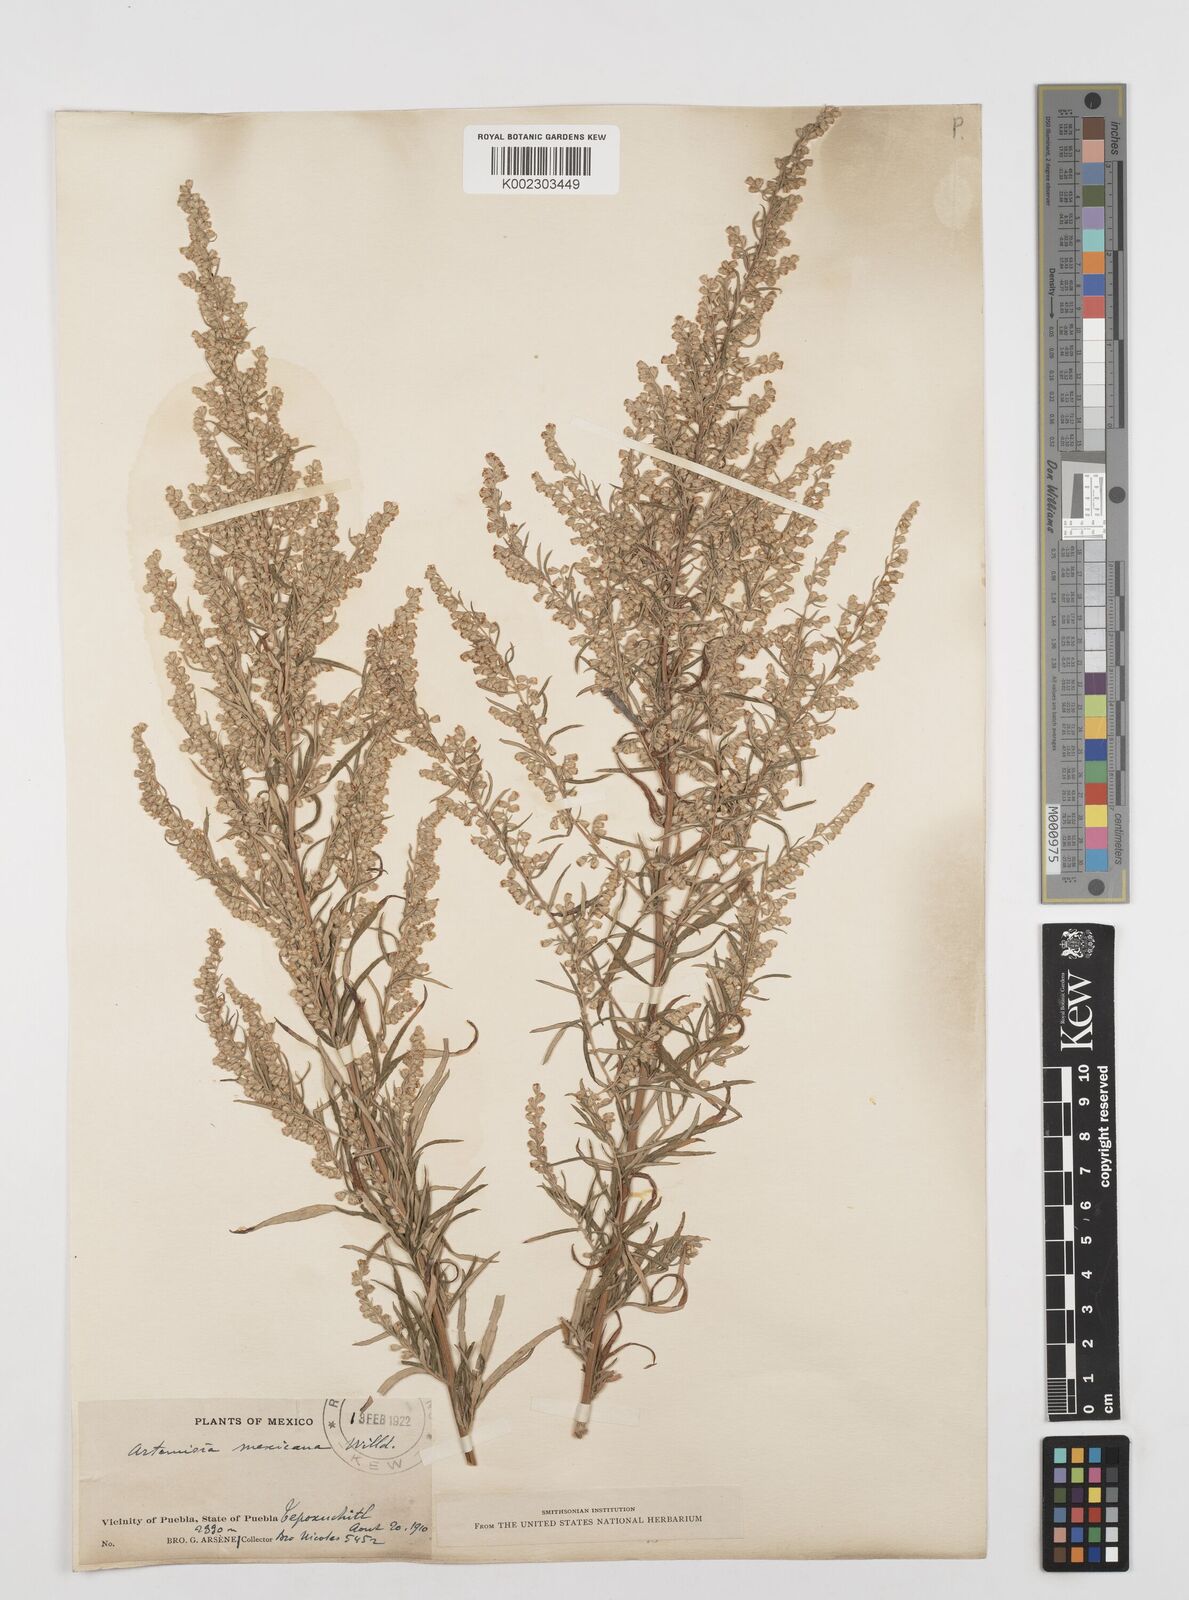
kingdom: Plantae
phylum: Tracheophyta
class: Magnoliopsida
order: Asterales
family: Asteraceae
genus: Artemisia
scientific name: Artemisia ludoviciana
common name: Western mugwort
